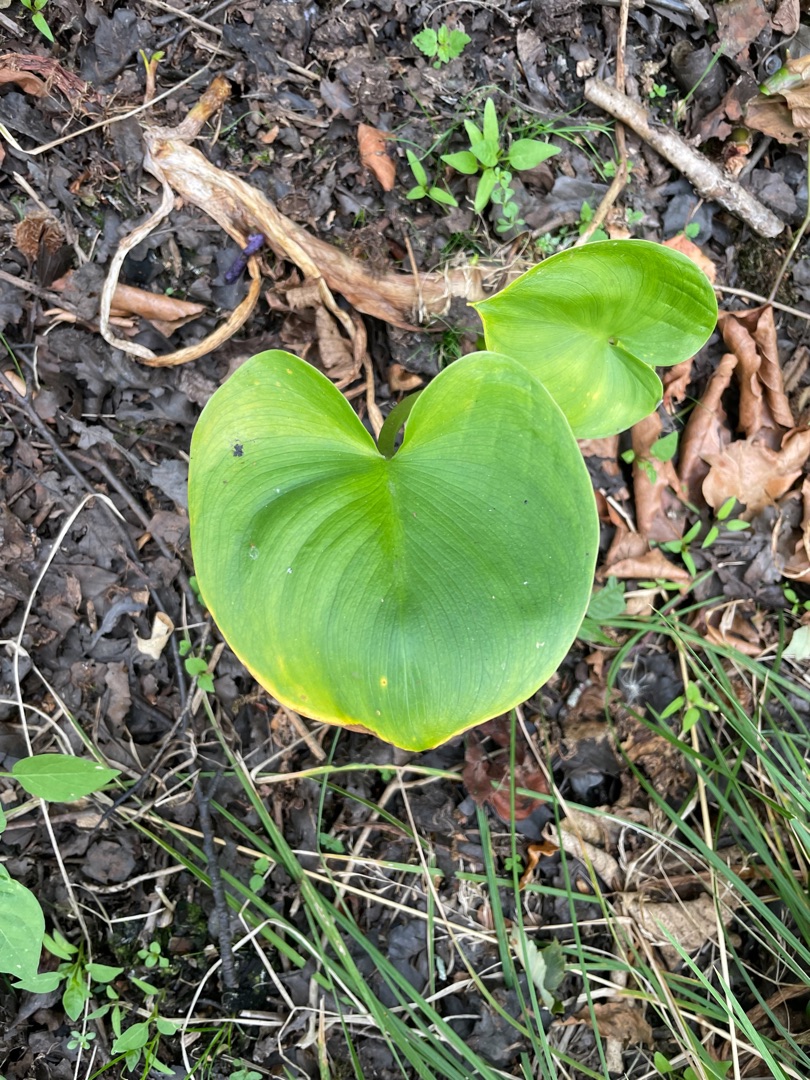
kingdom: Plantae
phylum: Tracheophyta
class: Liliopsida
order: Alismatales
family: Araceae
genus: Calla
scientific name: Calla palustris
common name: Kærmysse
